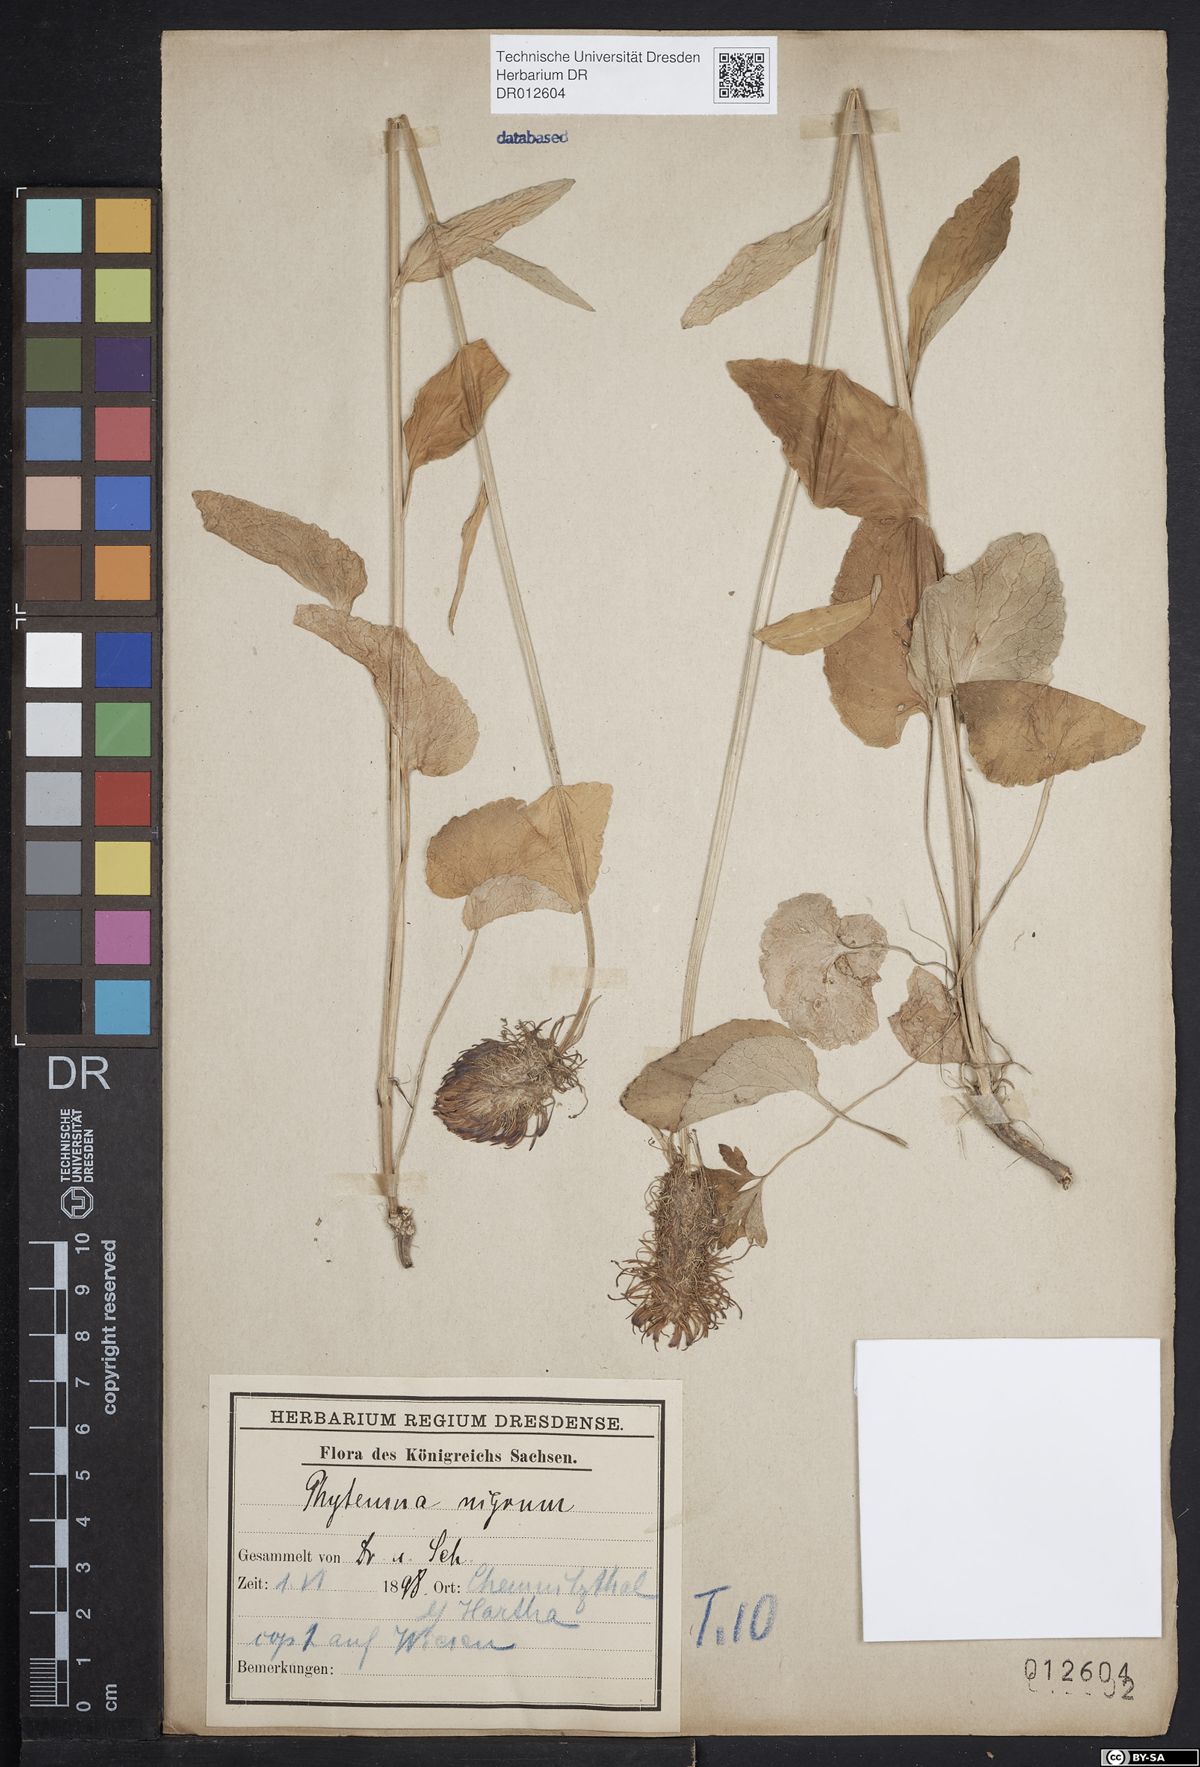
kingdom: Plantae
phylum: Tracheophyta
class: Magnoliopsida
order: Asterales
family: Campanulaceae
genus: Phyteuma
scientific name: Phyteuma nigrum
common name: Black rampion
